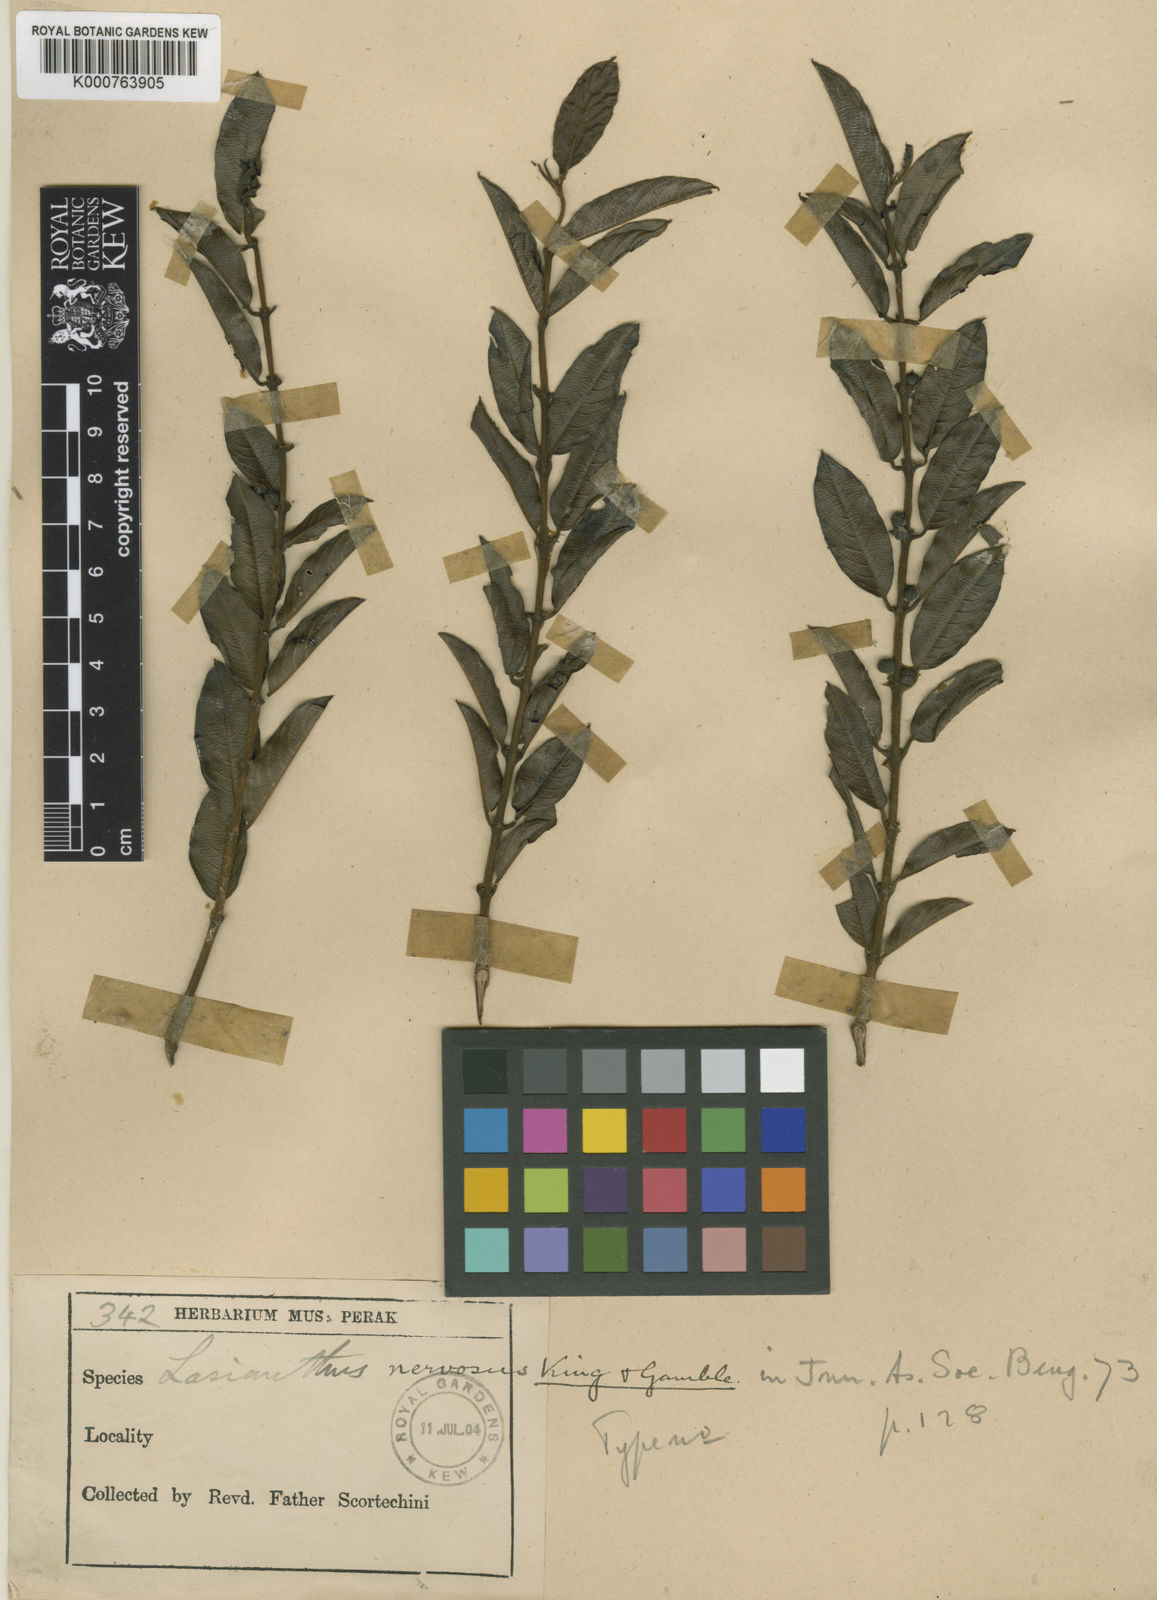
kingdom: Plantae
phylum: Tracheophyta
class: Magnoliopsida
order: Gentianales
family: Rubiaceae
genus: Lasianthus
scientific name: Lasianthus nervosus
